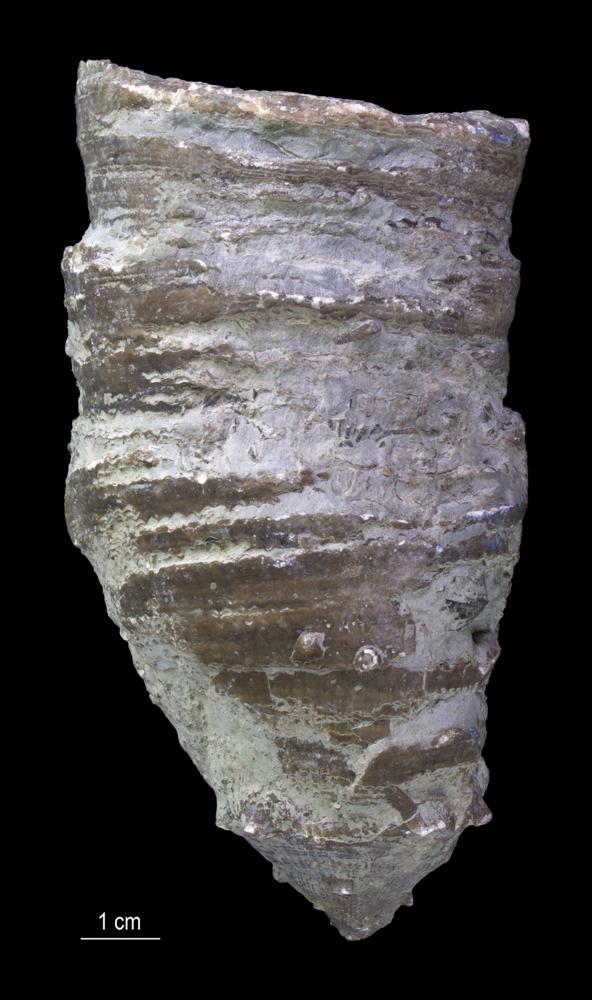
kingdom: Animalia
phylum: Cnidaria
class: Anthozoa
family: Chonophyllidae
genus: Ketophyllum
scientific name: Ketophyllum
